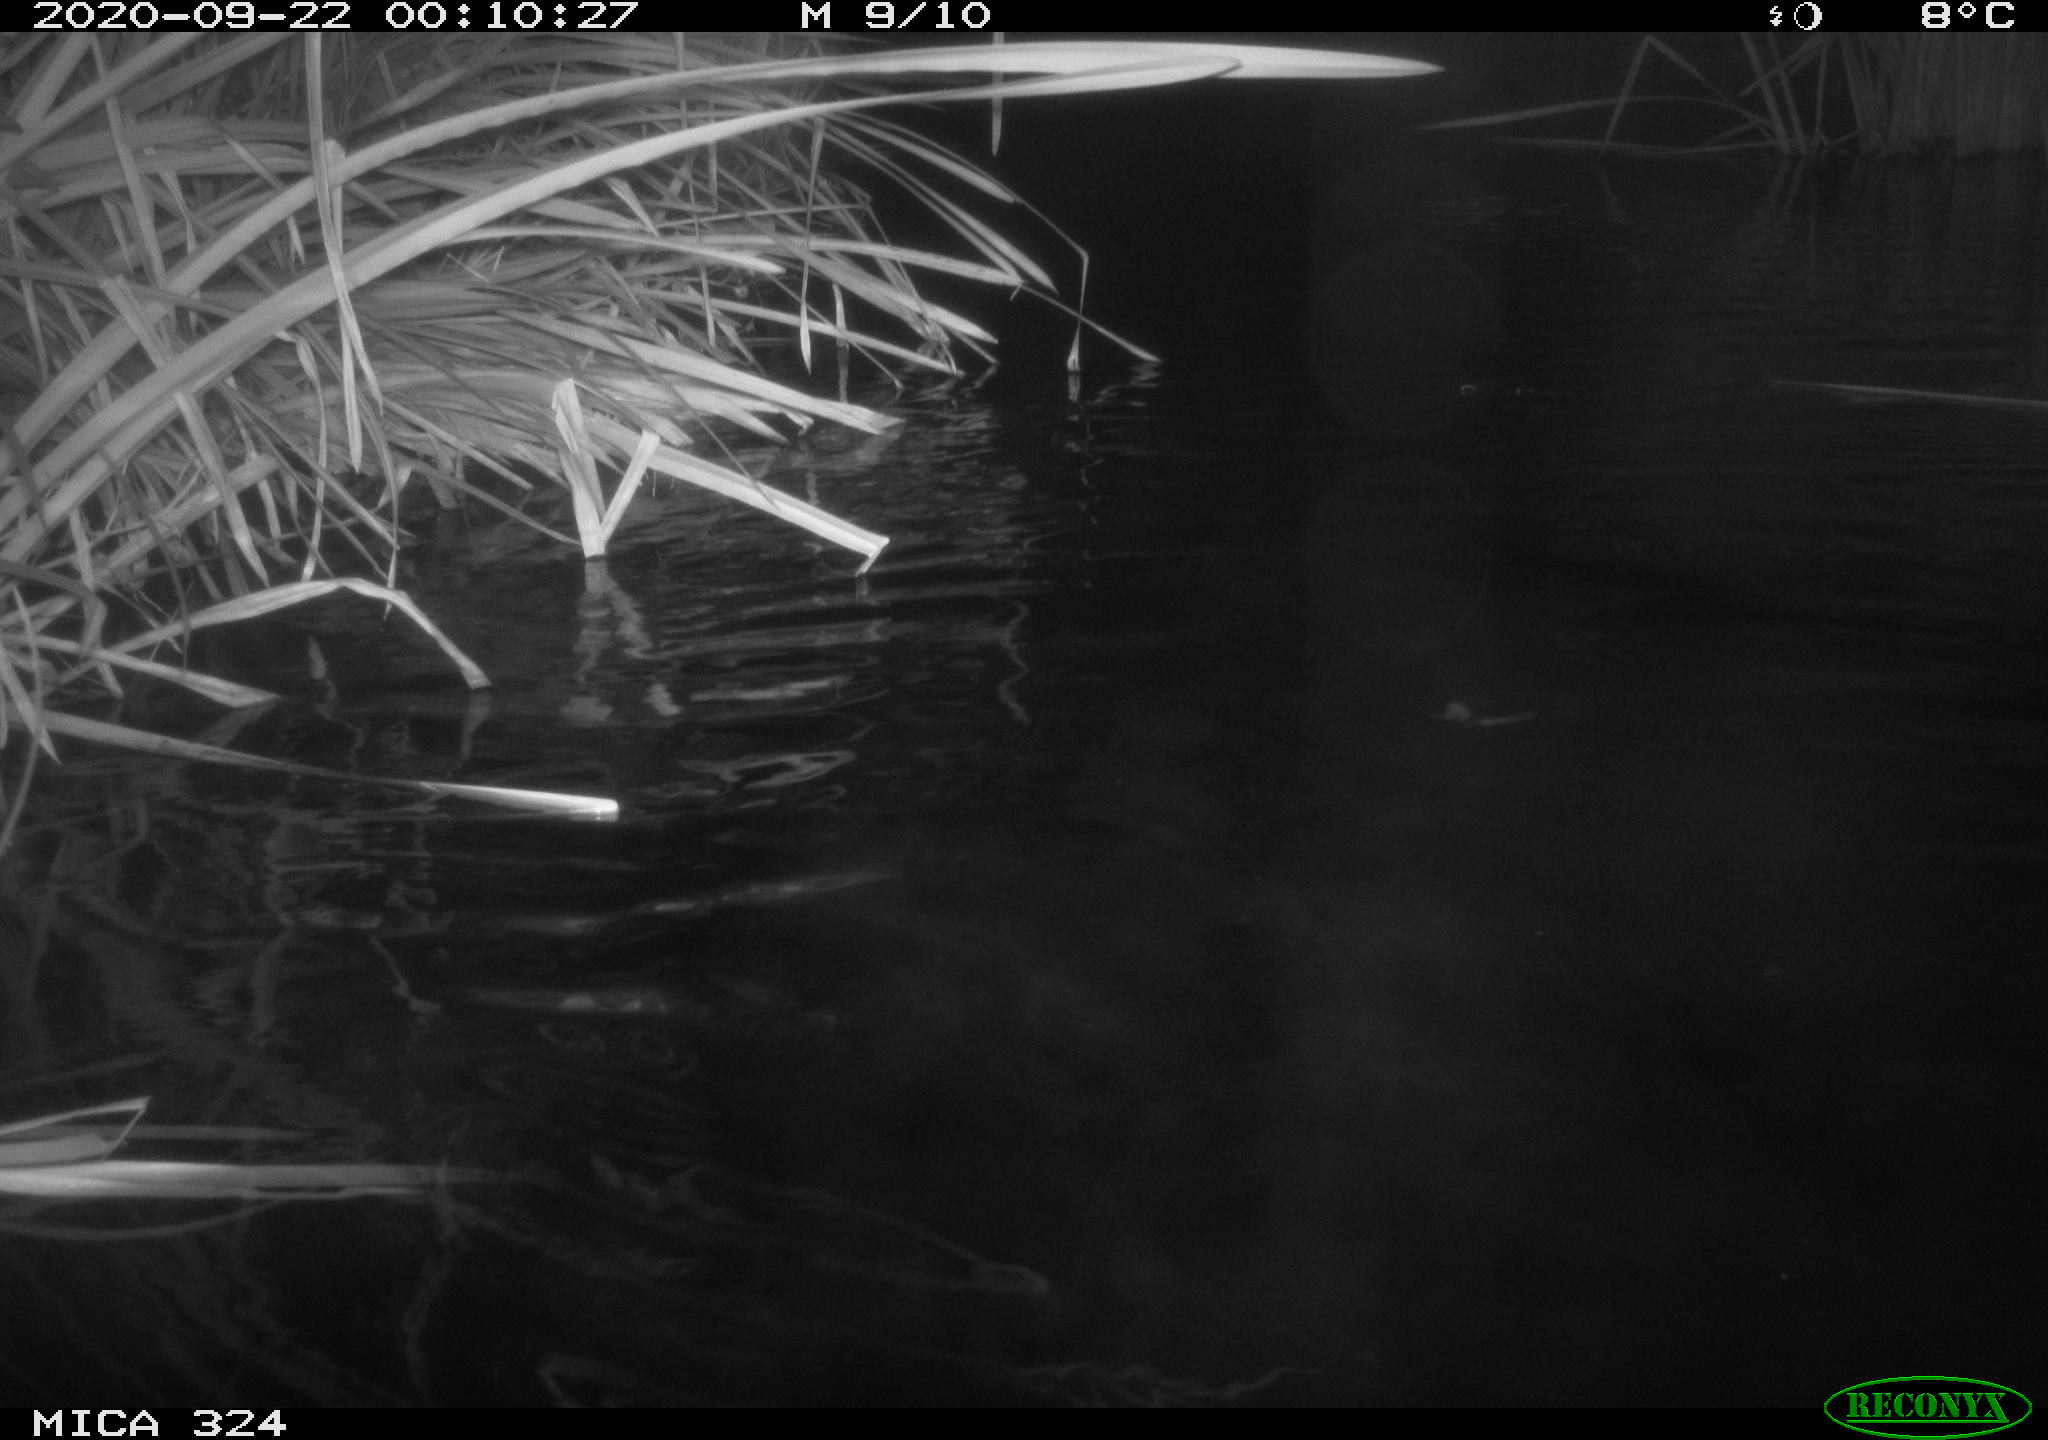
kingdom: Animalia
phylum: Chordata
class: Mammalia
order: Rodentia
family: Cricetidae
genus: Ondatra
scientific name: Ondatra zibethicus
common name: Muskrat
